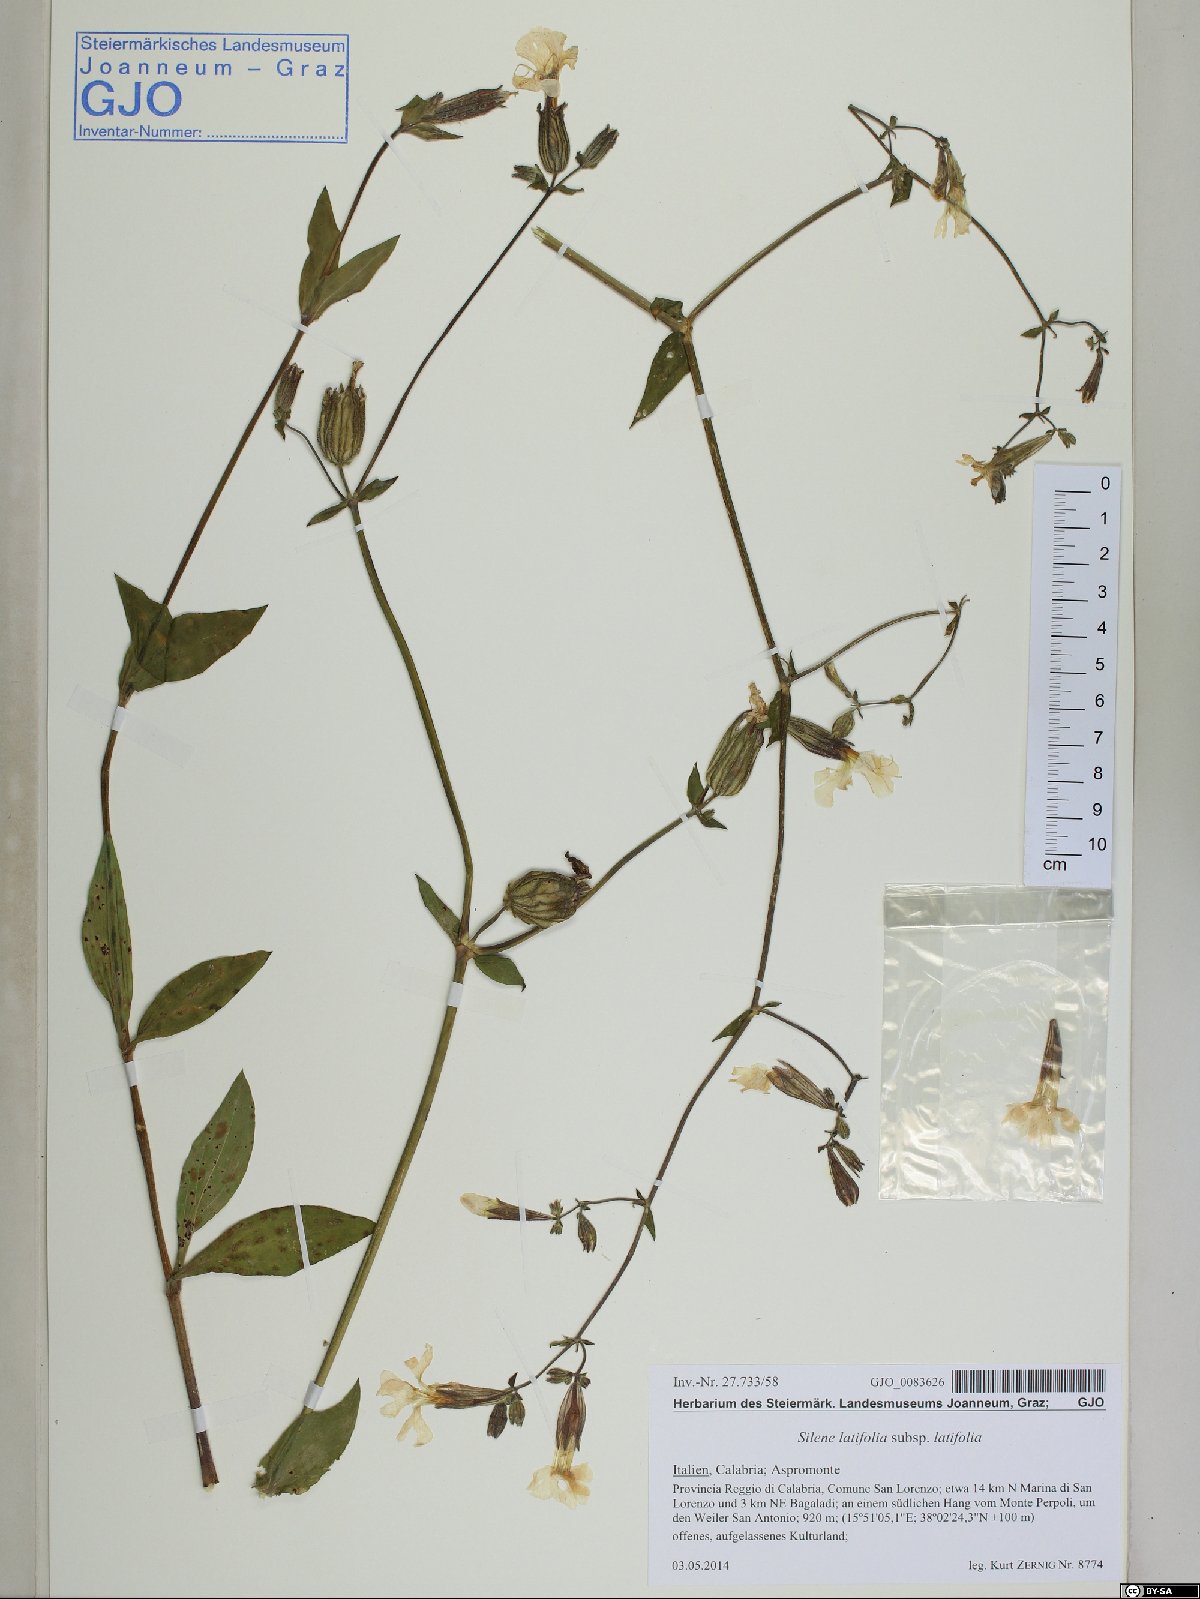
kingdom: Plantae
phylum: Tracheophyta
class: Magnoliopsida
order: Caryophyllales
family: Caryophyllaceae
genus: Silene
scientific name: Silene latifolia
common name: White campion
